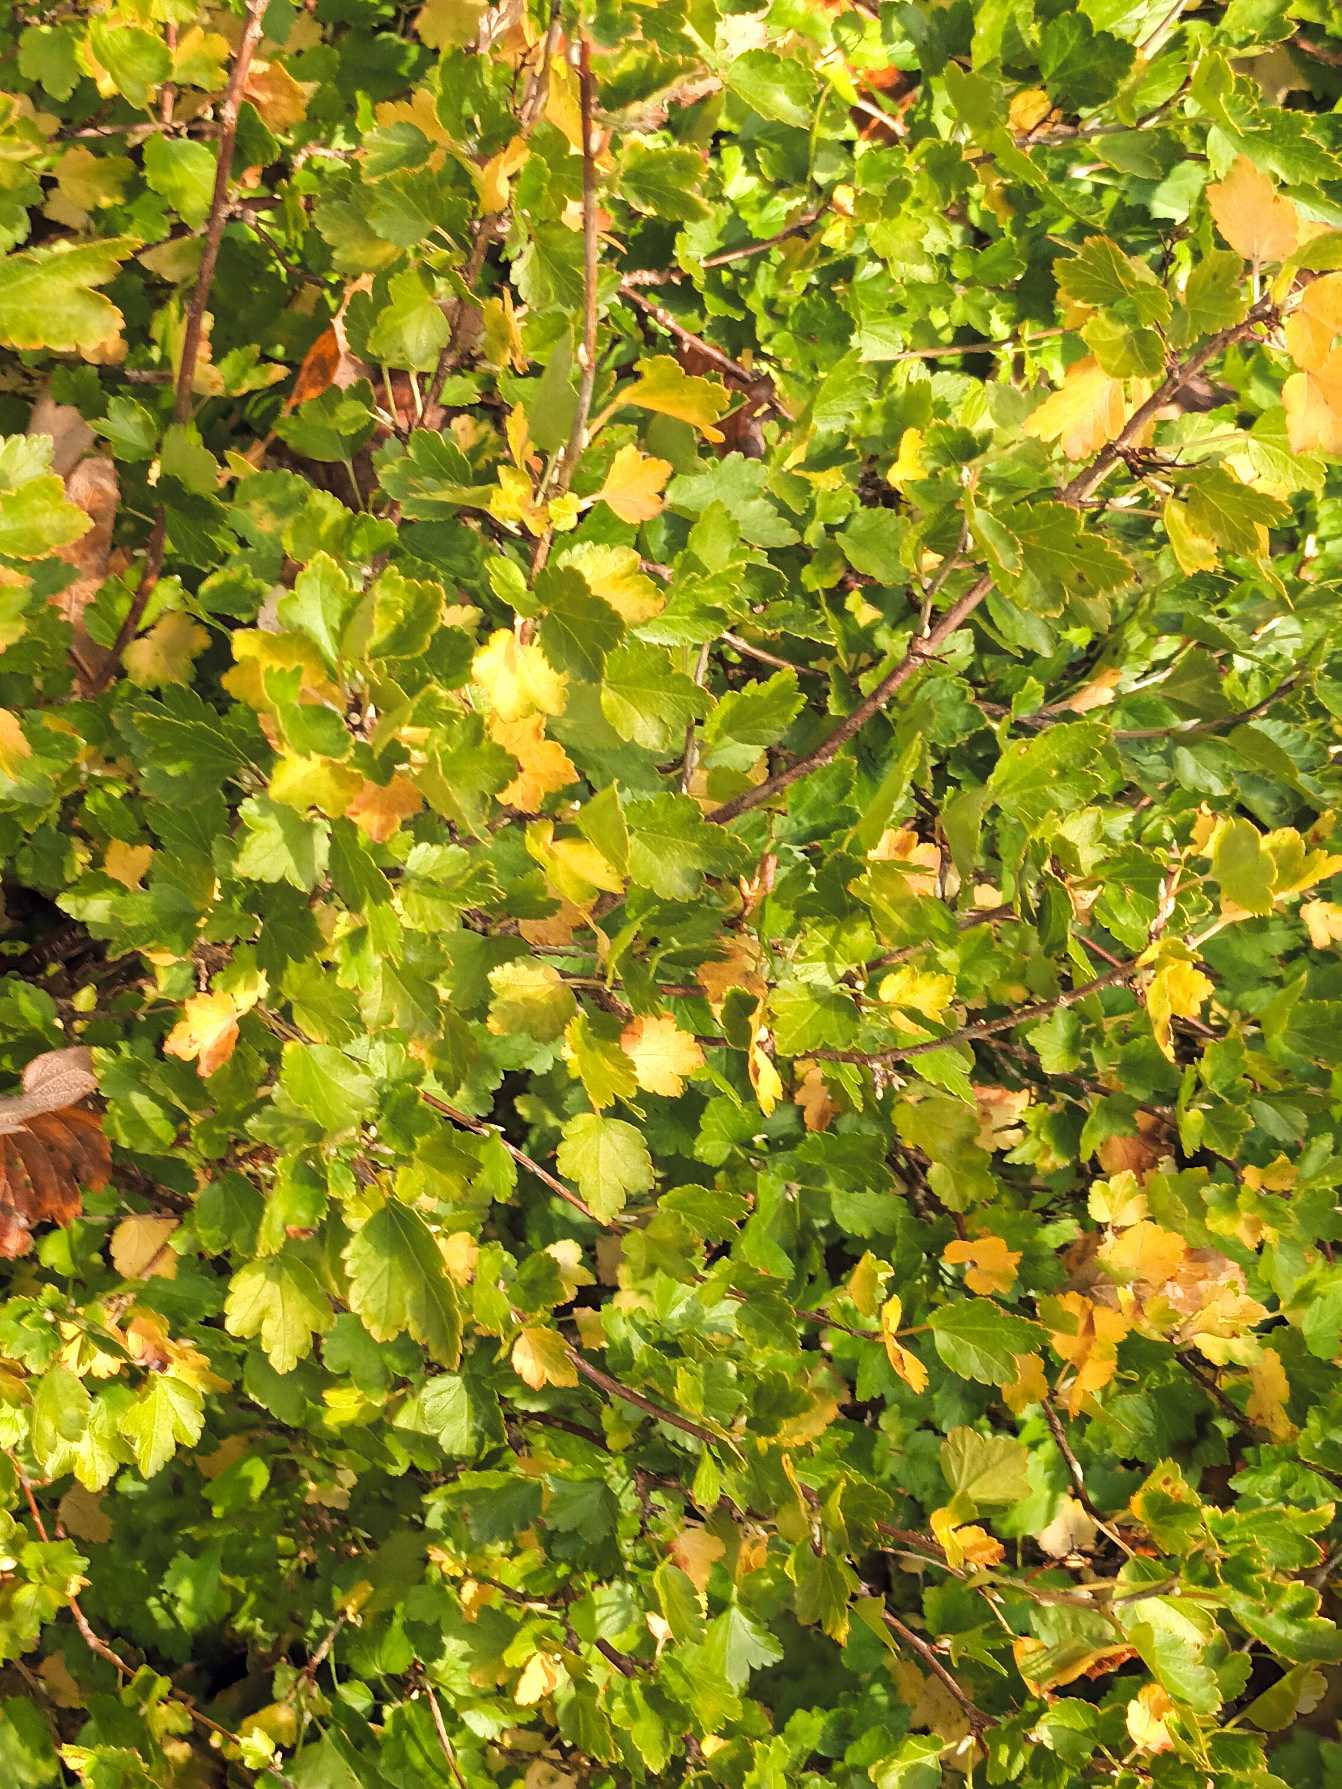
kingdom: Plantae
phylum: Tracheophyta
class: Magnoliopsida
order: Saxifragales
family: Grossulariaceae
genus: Ribes
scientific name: Ribes alpinum
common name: Fjeld-ribs
